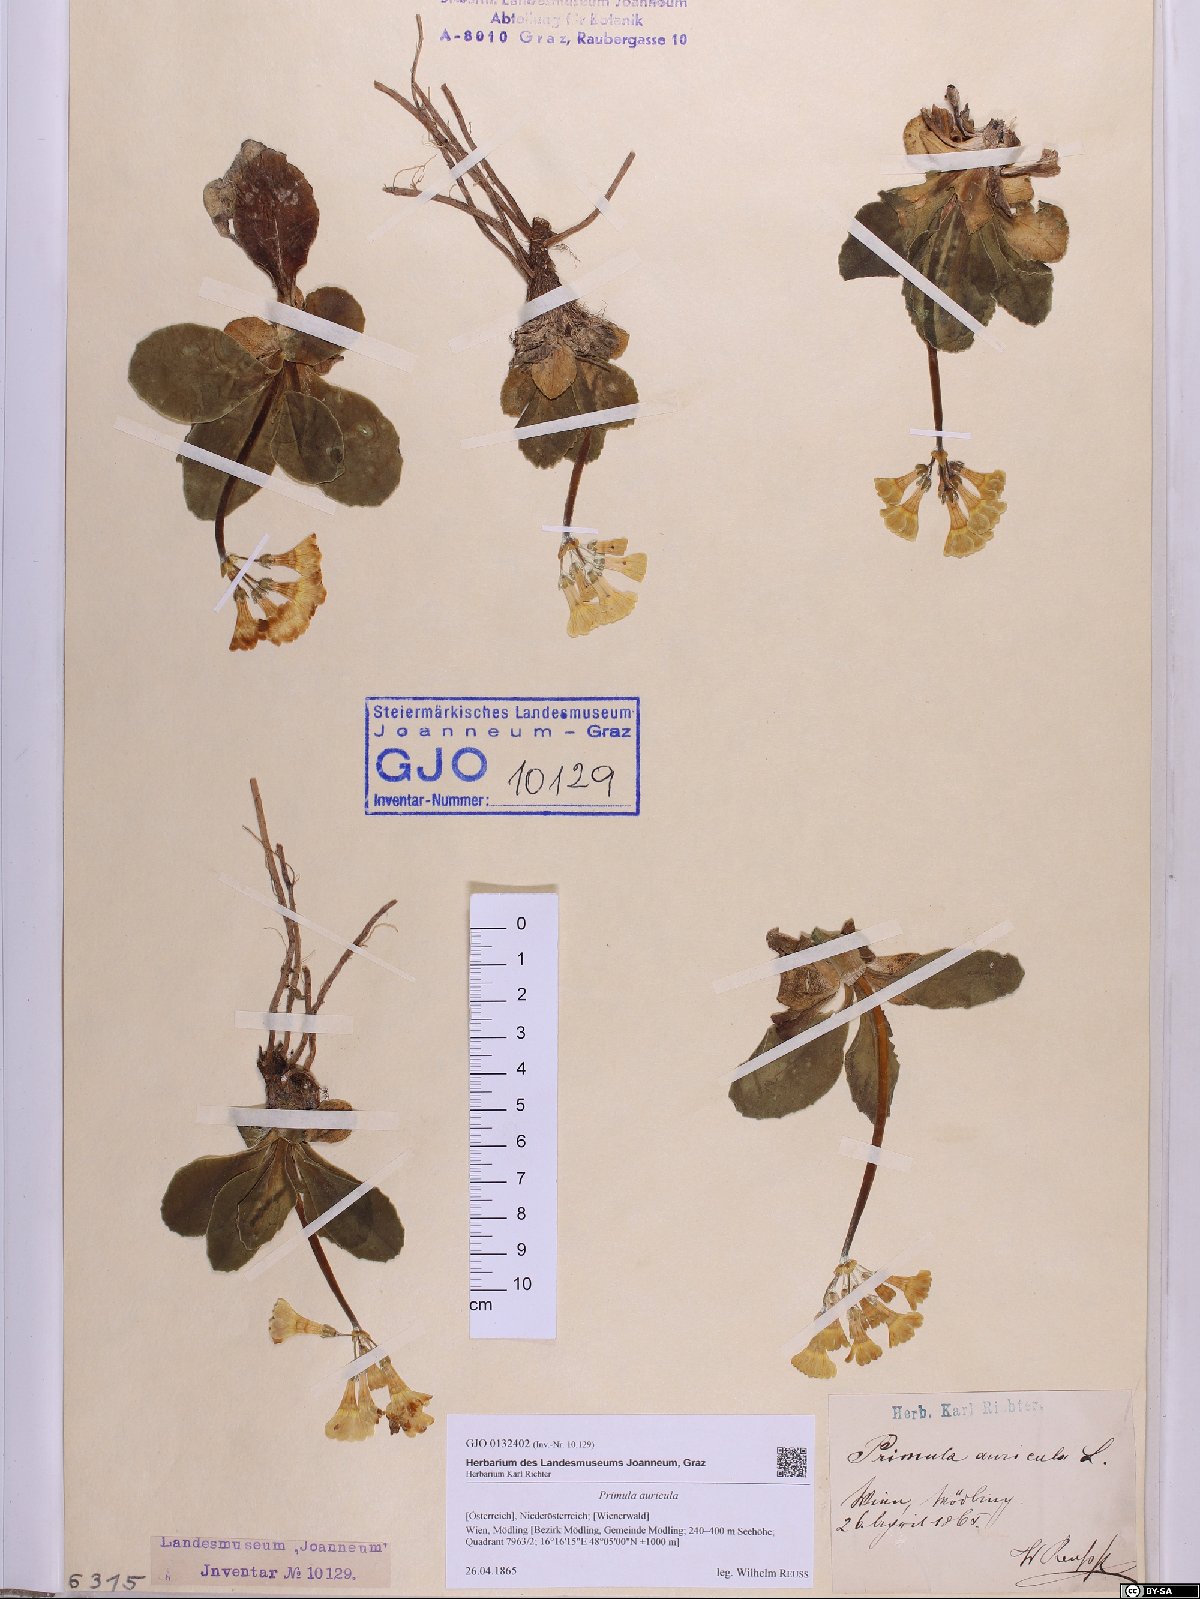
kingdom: Plantae
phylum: Tracheophyta
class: Magnoliopsida
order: Ericales
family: Primulaceae
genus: Primula
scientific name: Primula auricula
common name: Auricula
